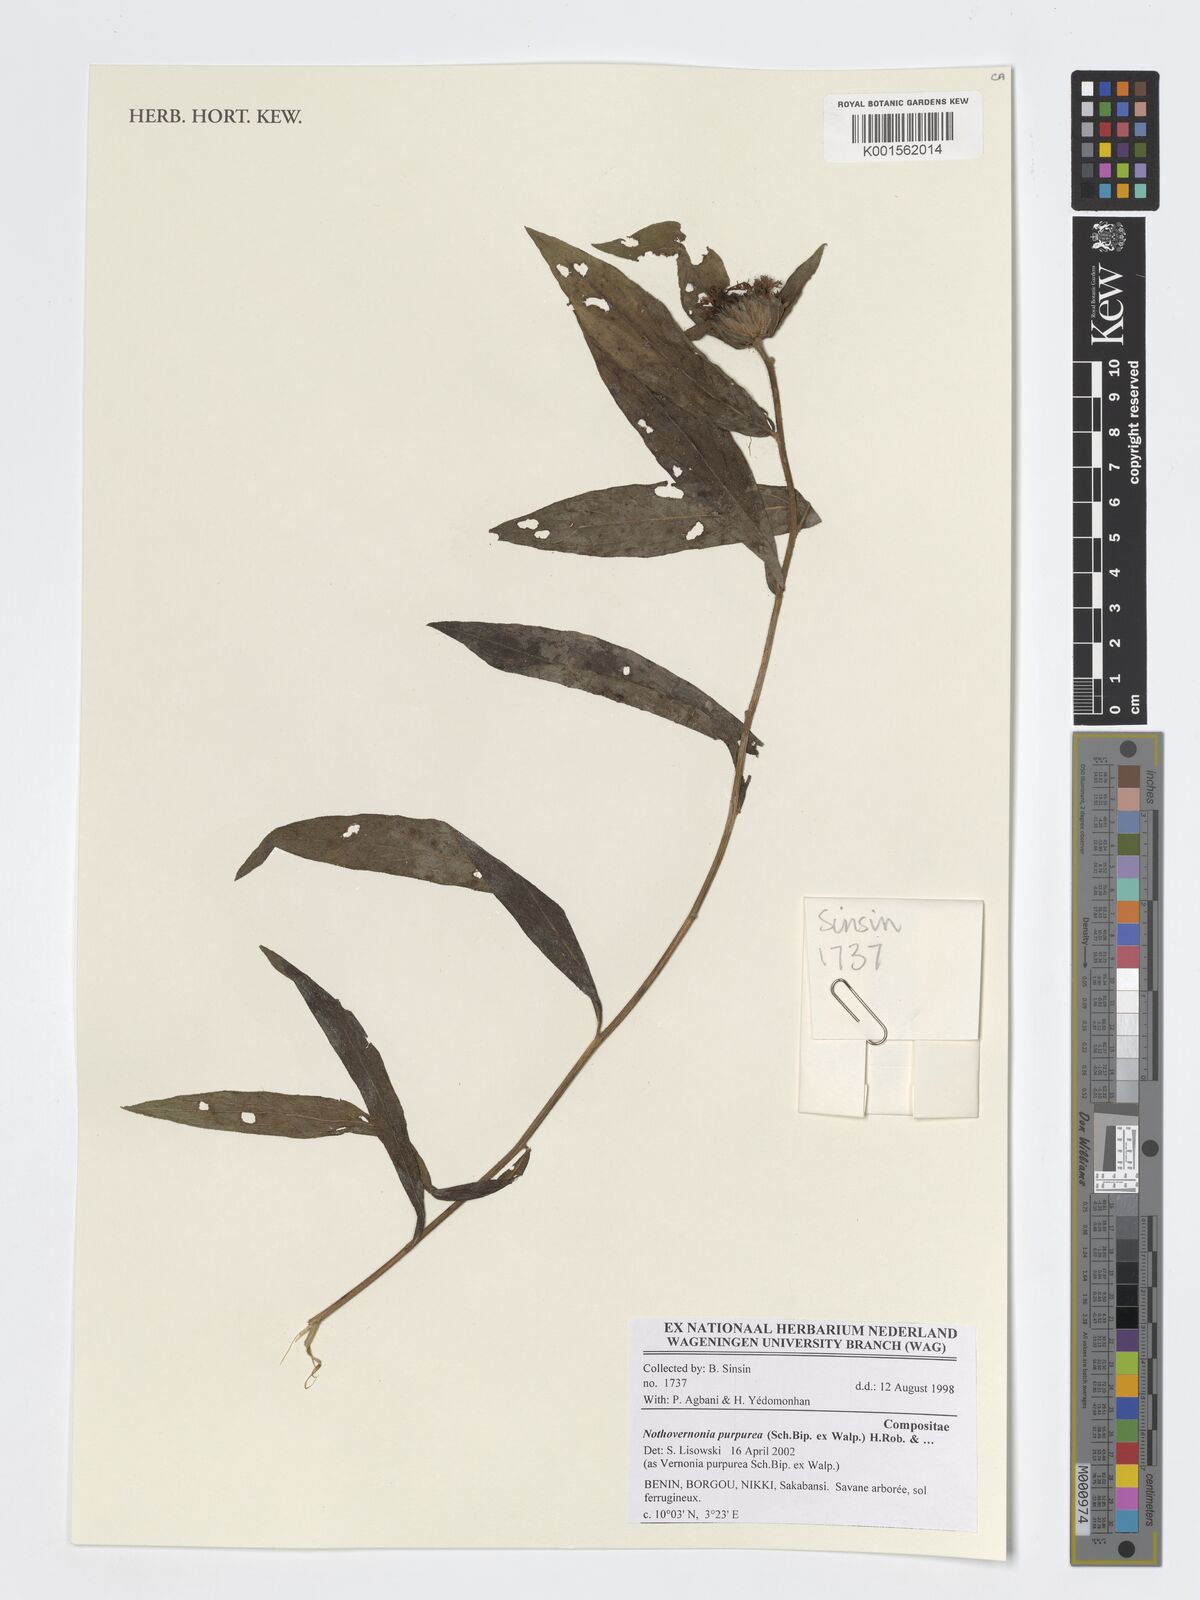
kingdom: Plantae
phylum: Tracheophyta
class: Magnoliopsida
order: Asterales
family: Asteraceae
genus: Nothovernonia
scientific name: Nothovernonia purpurea
